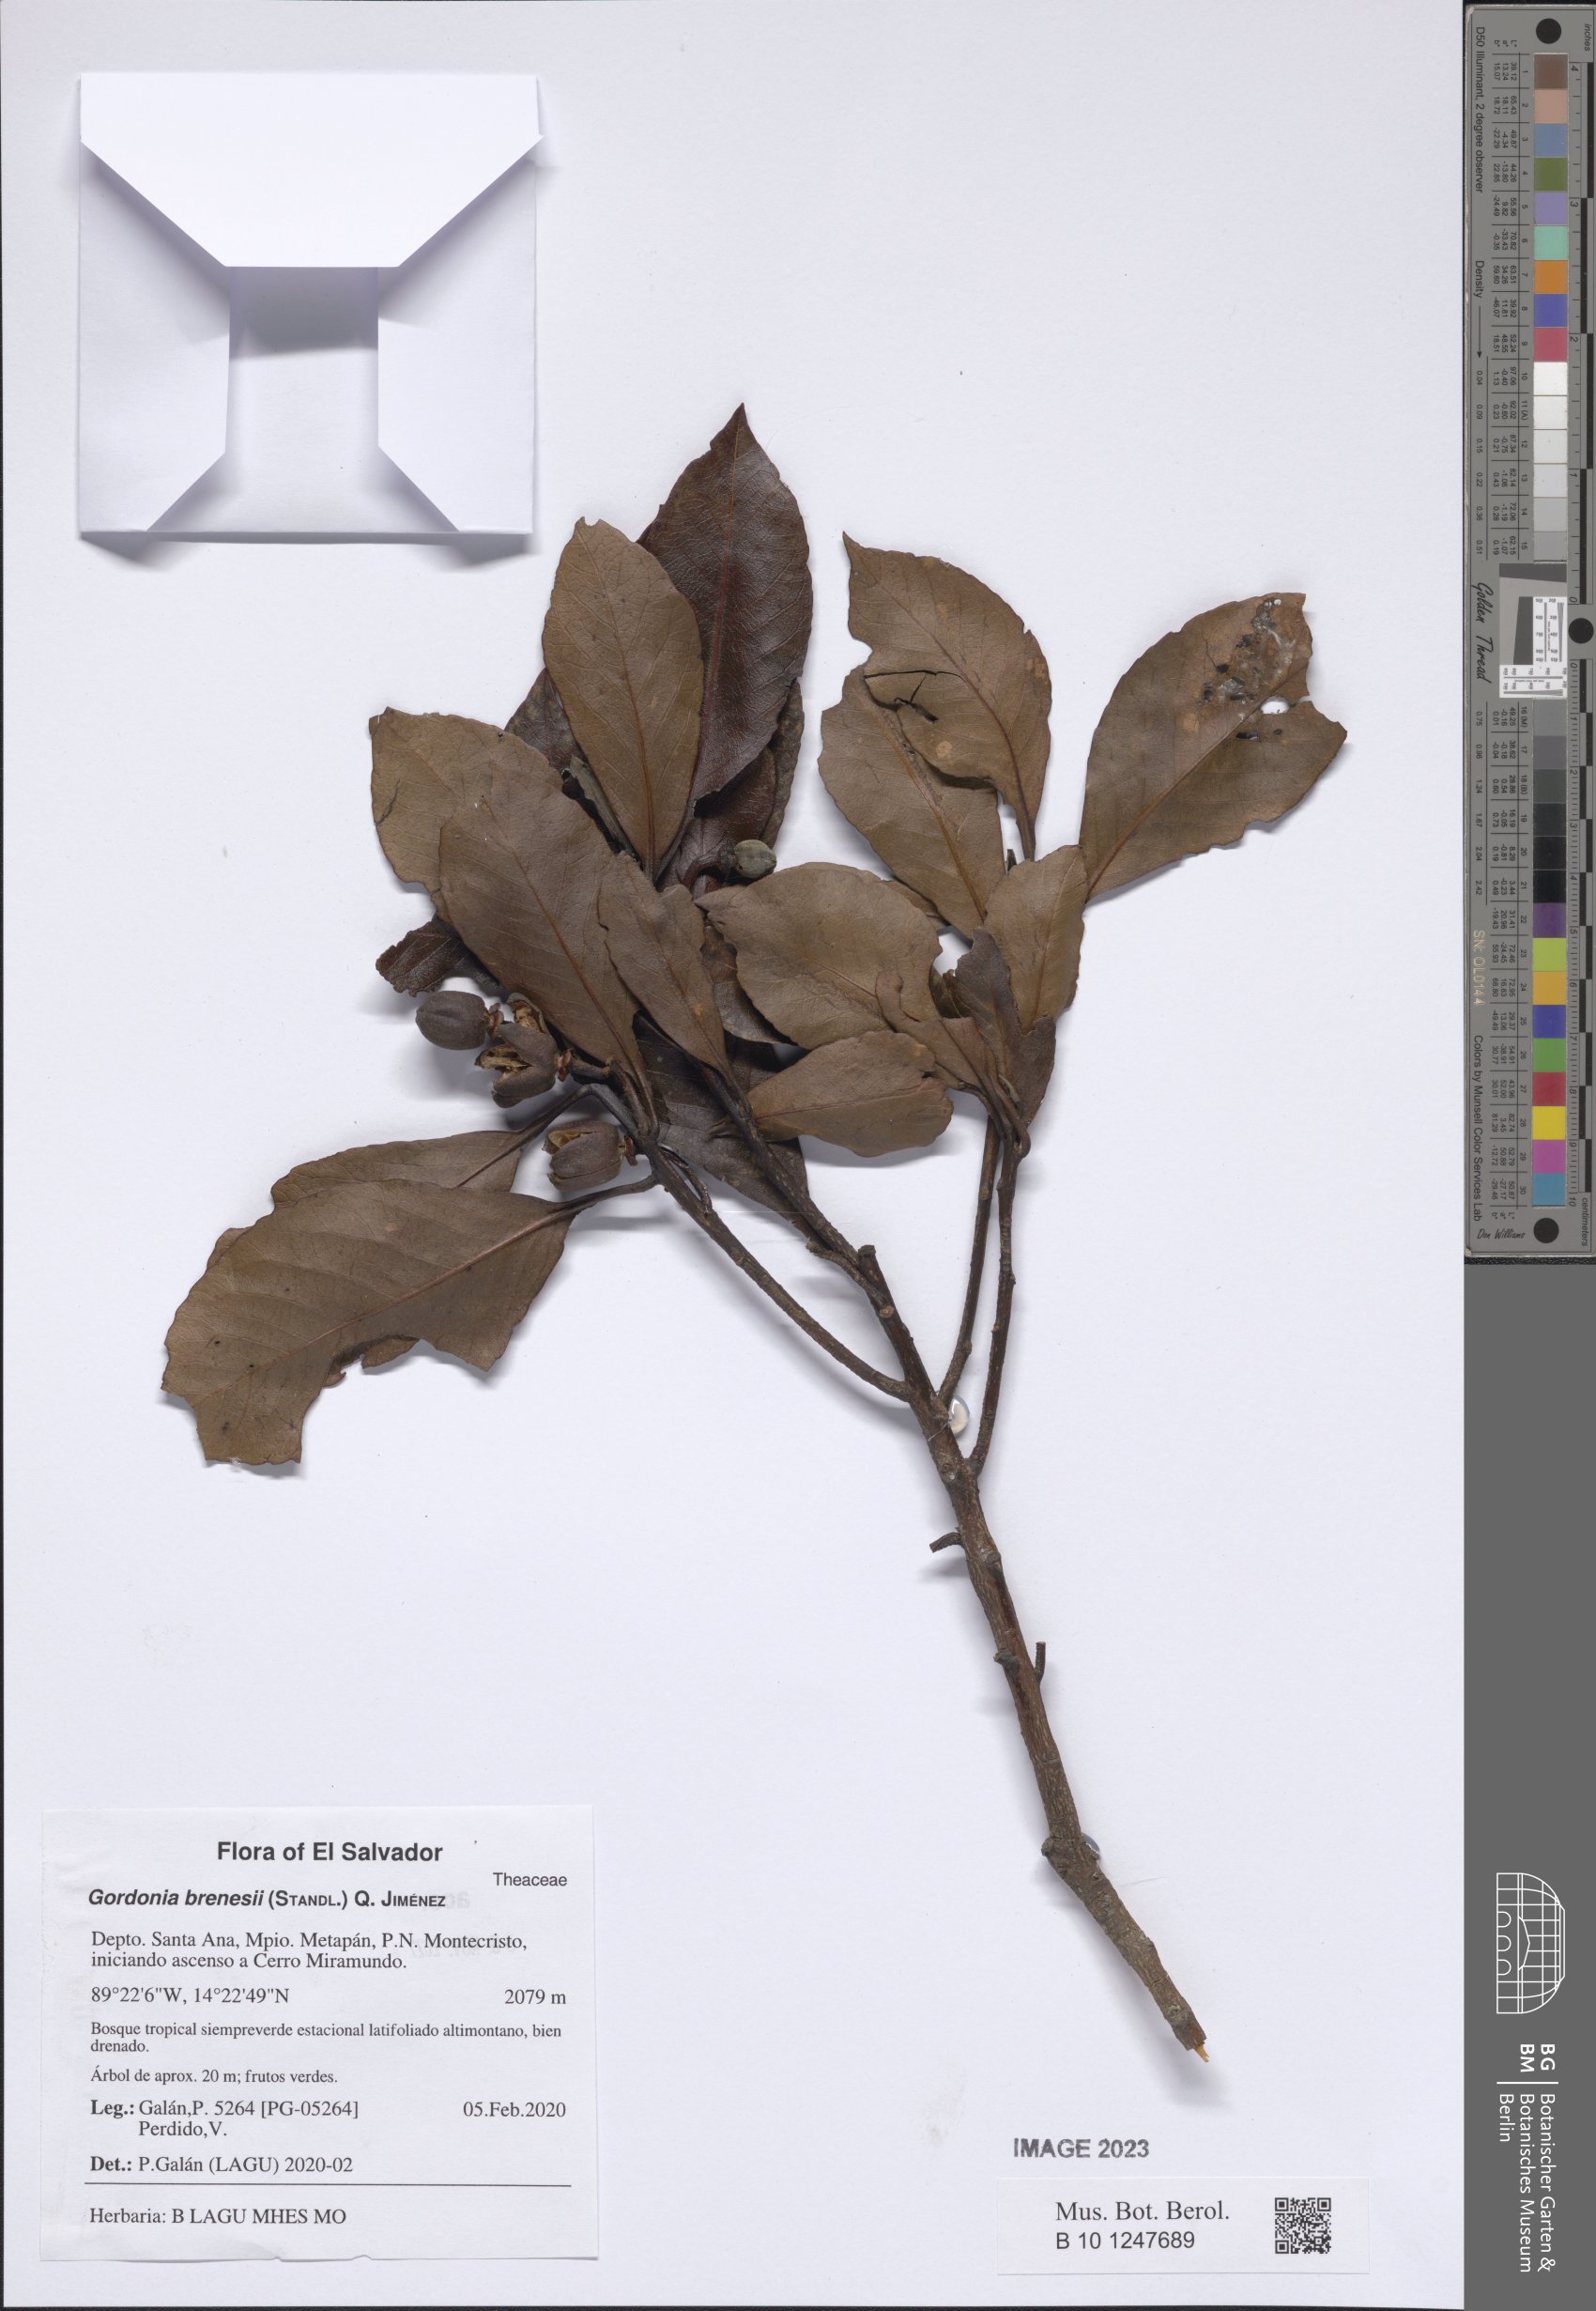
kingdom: Plantae
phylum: Tracheophyta
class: Magnoliopsida
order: Ericales
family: Theaceae
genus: Gordonia
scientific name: Gordonia brenesii
